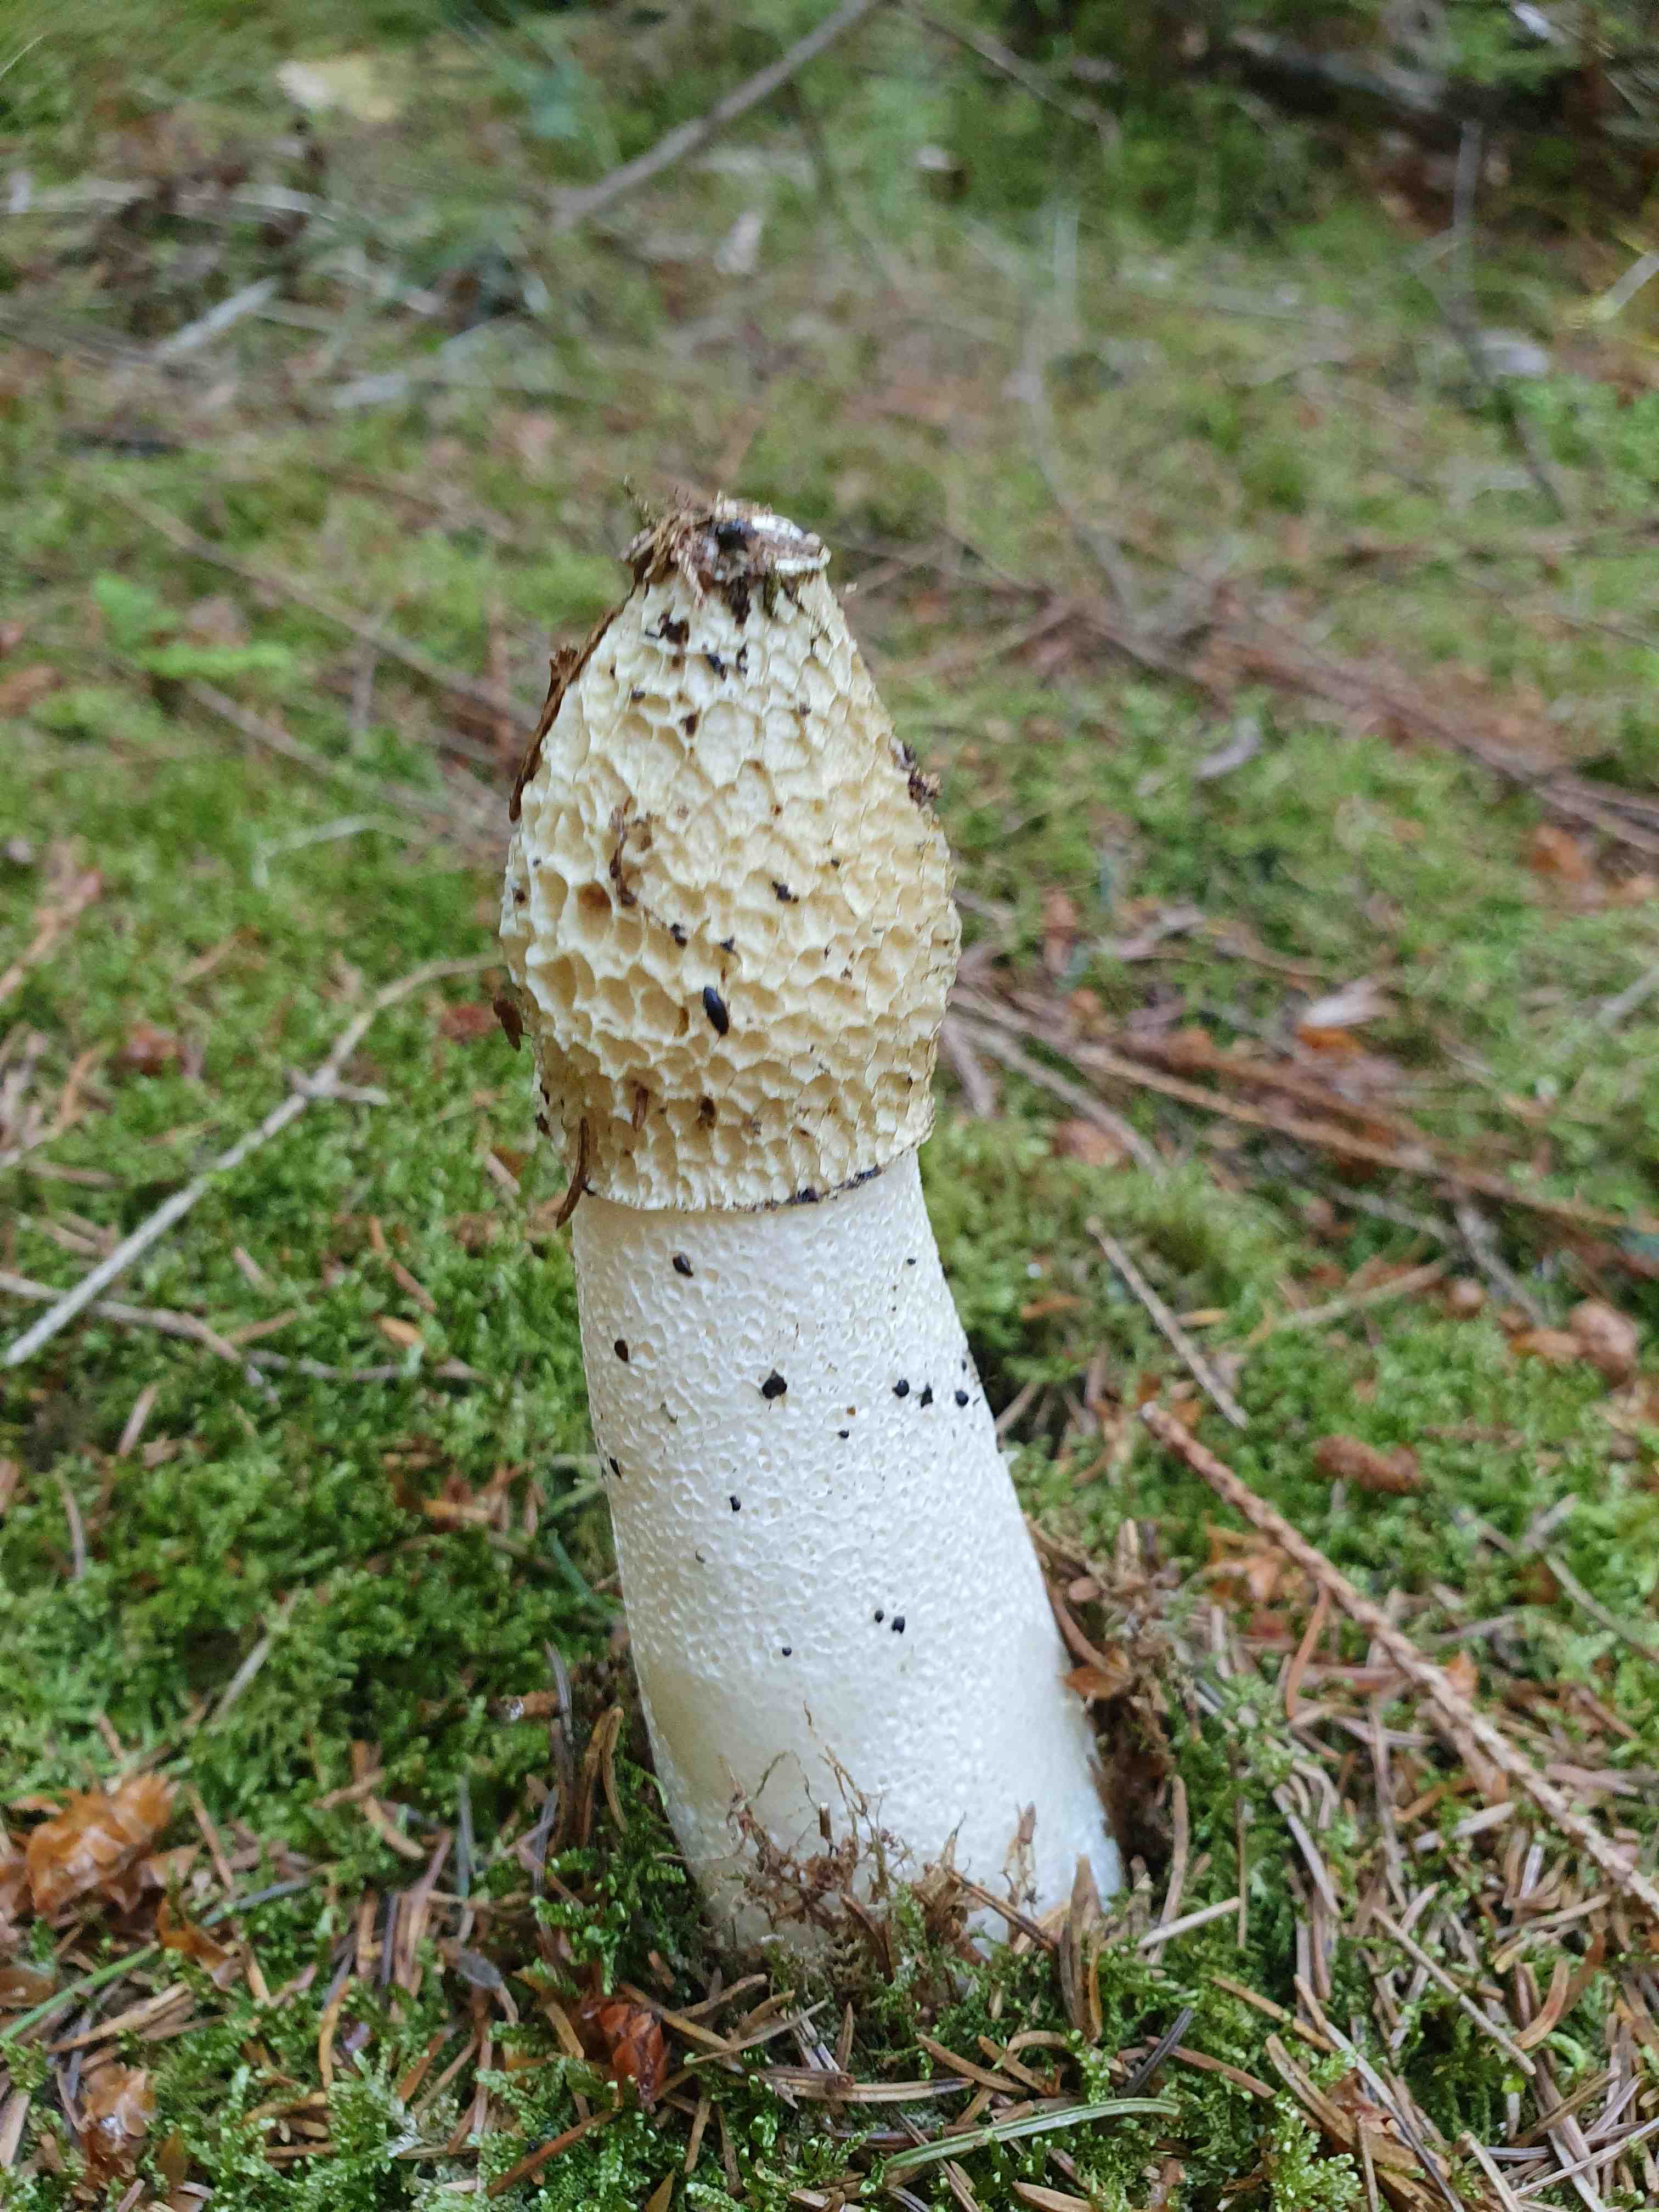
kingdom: Fungi
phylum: Basidiomycota
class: Agaricomycetes
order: Phallales
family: Phallaceae
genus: Phallus
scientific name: Phallus impudicus
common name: almindelig stinksvamp
